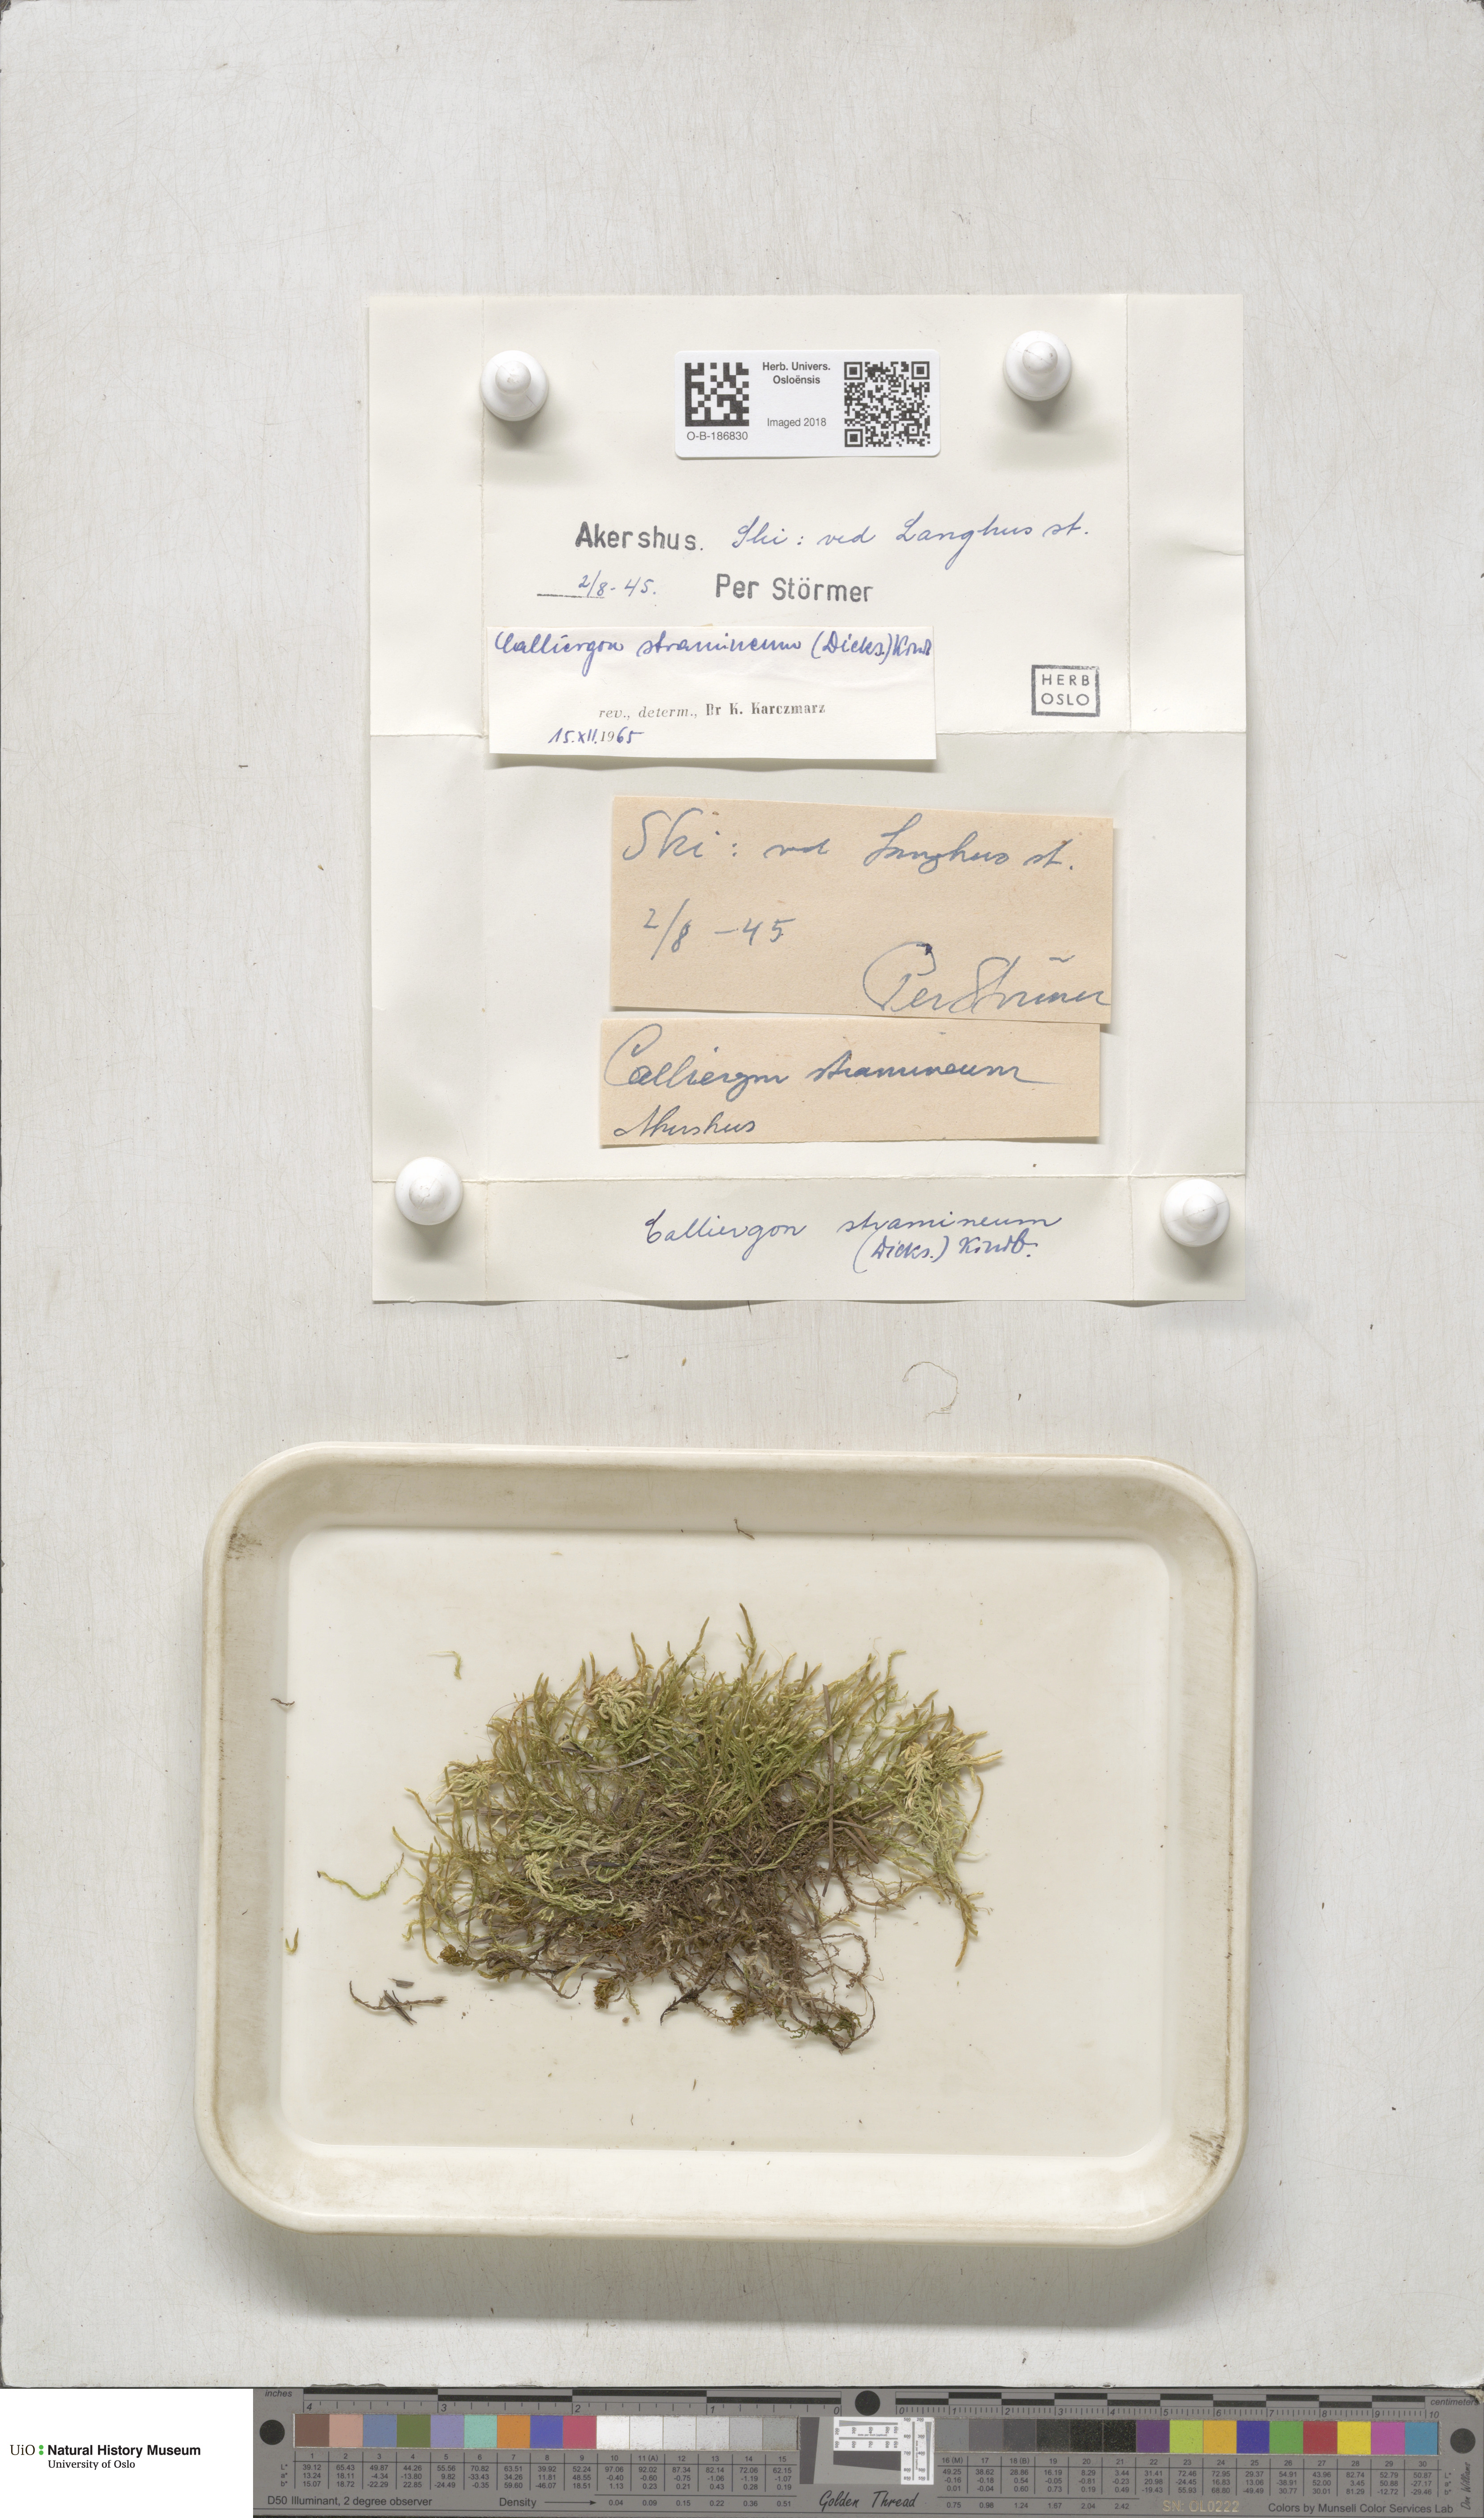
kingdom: Plantae
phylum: Bryophyta
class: Bryopsida
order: Hypnales
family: Calliergonaceae
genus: Straminergon
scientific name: Straminergon stramineum
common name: Straw moss
